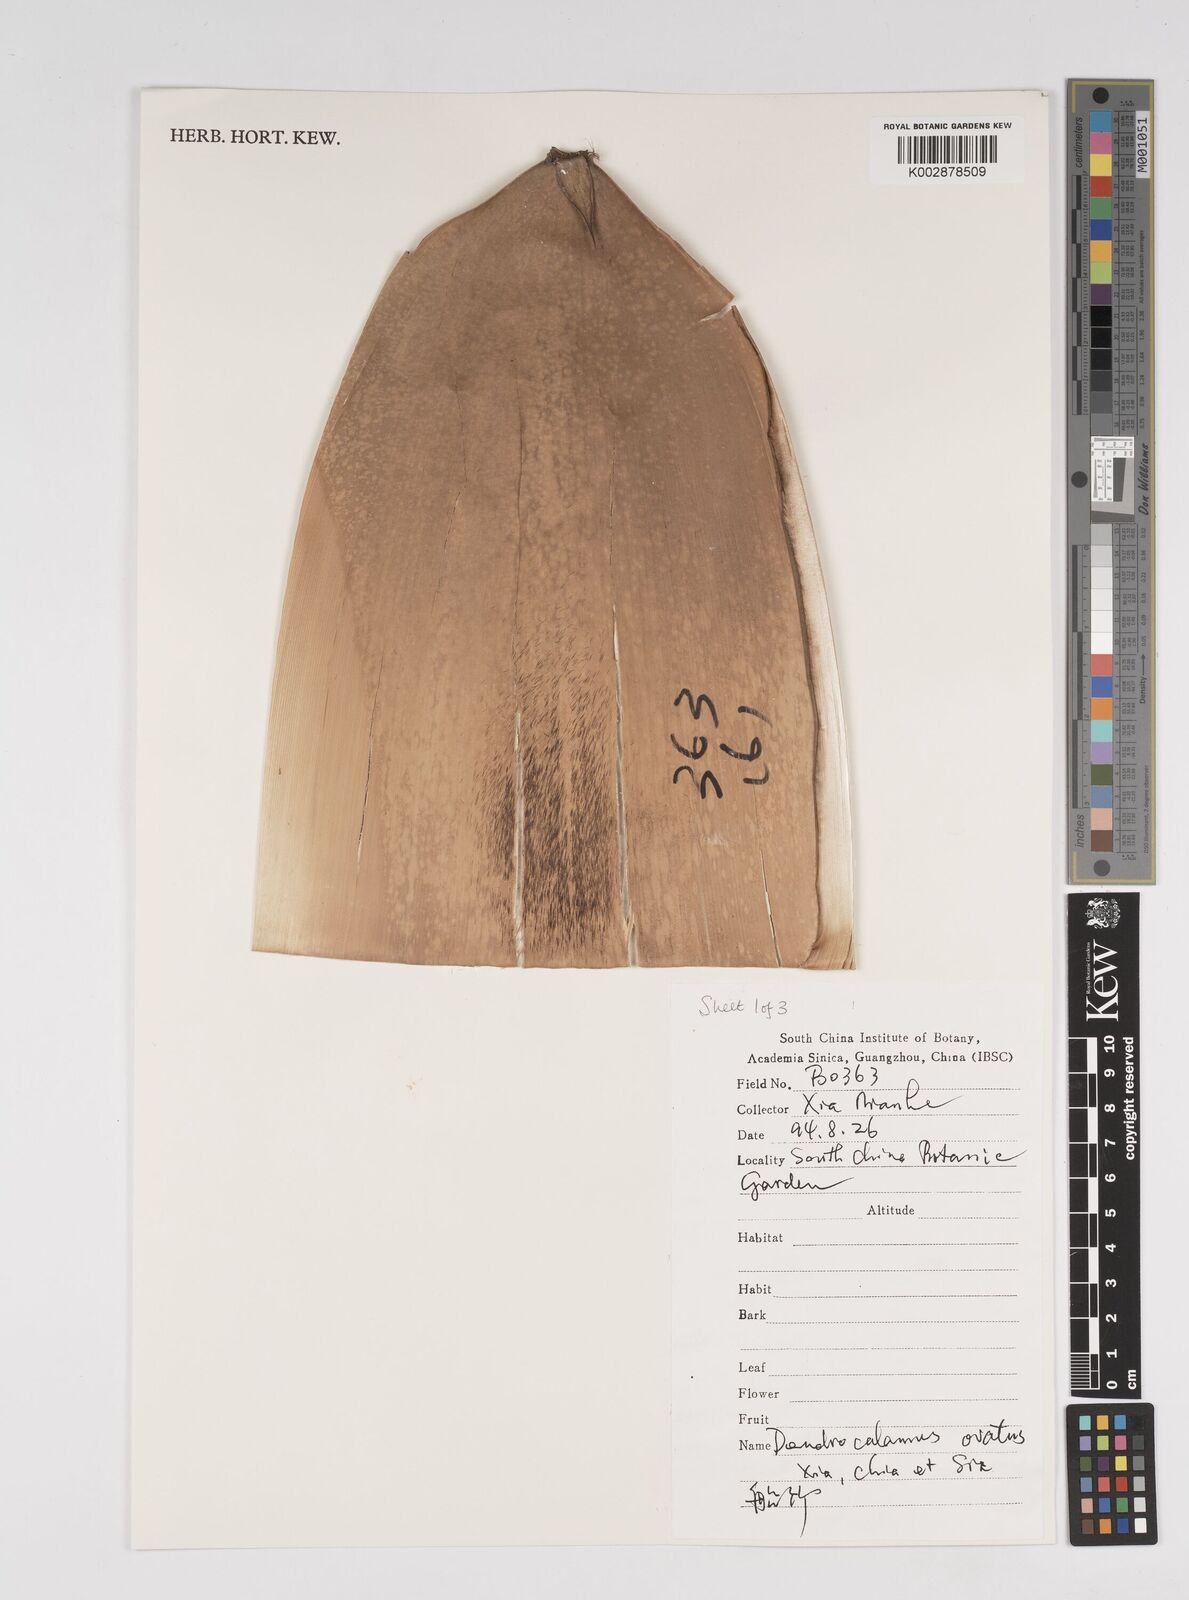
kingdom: Plantae
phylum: Tracheophyta
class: Liliopsida
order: Poales
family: Poaceae
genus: Dendrocalamus
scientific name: Dendrocalamus farinosus
